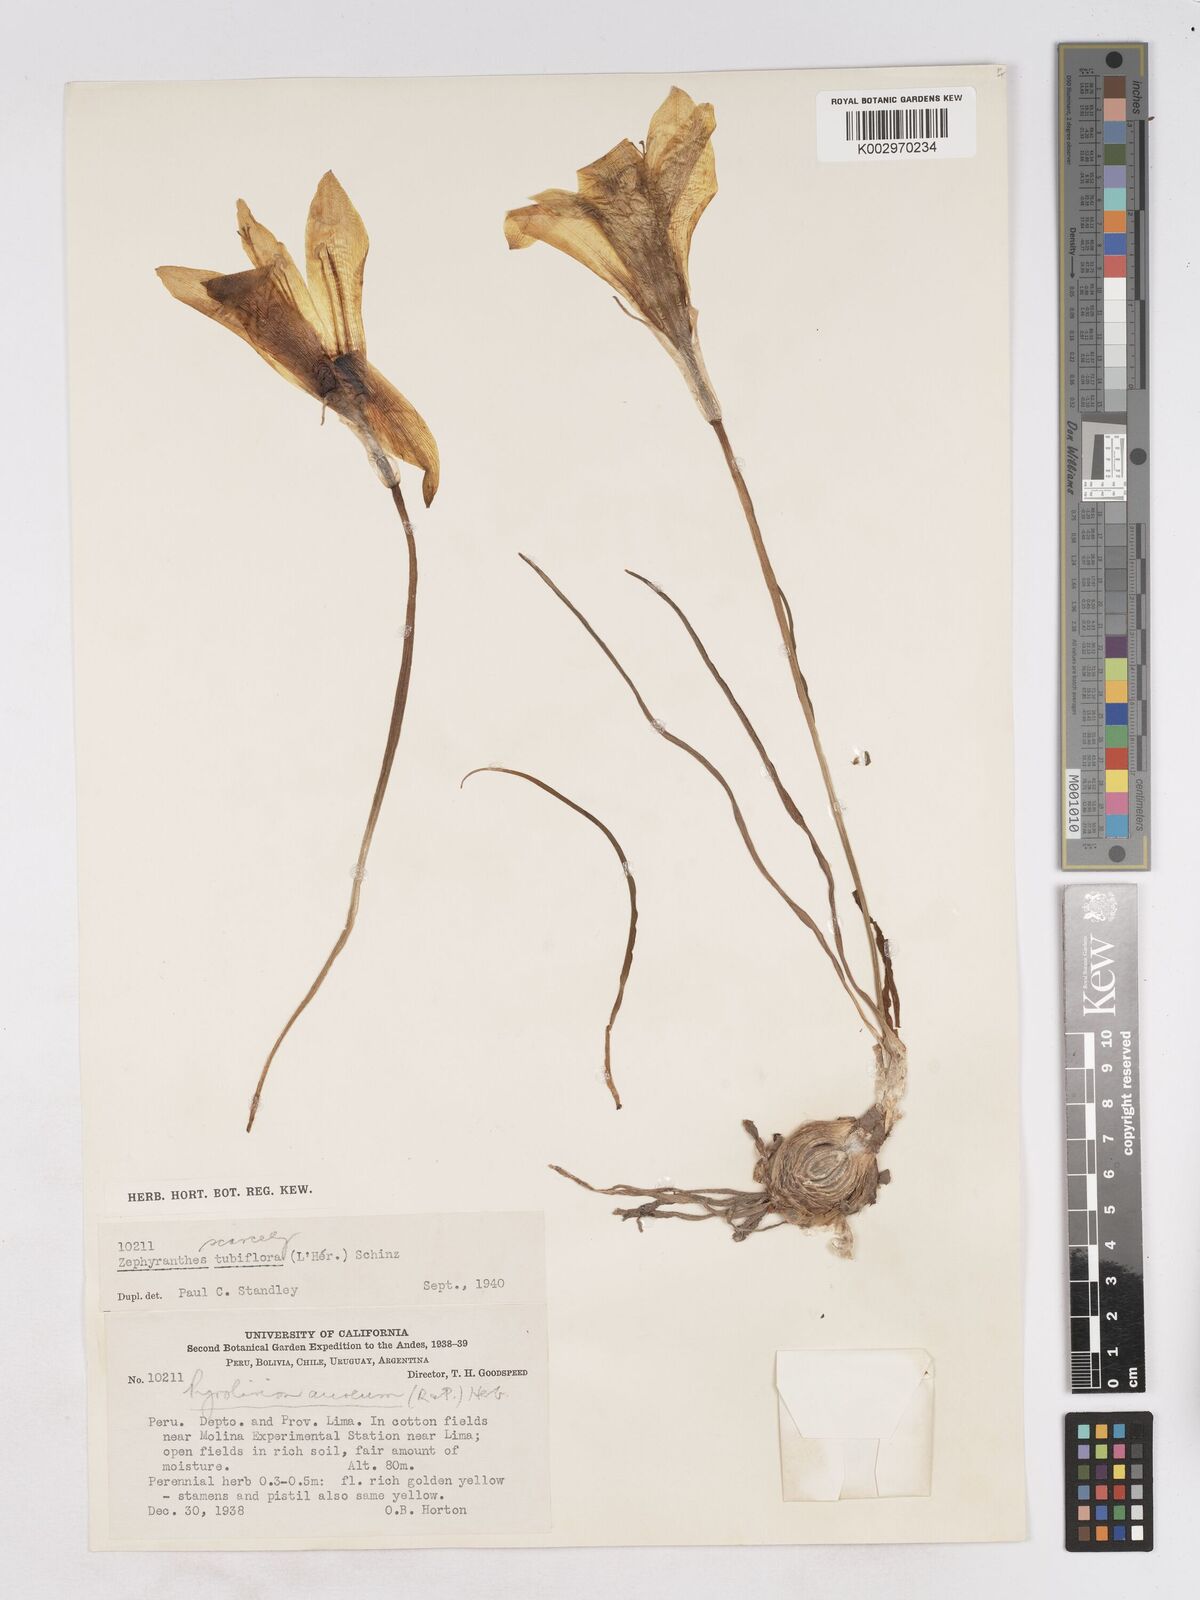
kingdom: Plantae
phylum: Tracheophyta
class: Liliopsida
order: Asparagales
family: Amaryllidaceae
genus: Pyrolirion
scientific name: Pyrolirion tubiflorum
